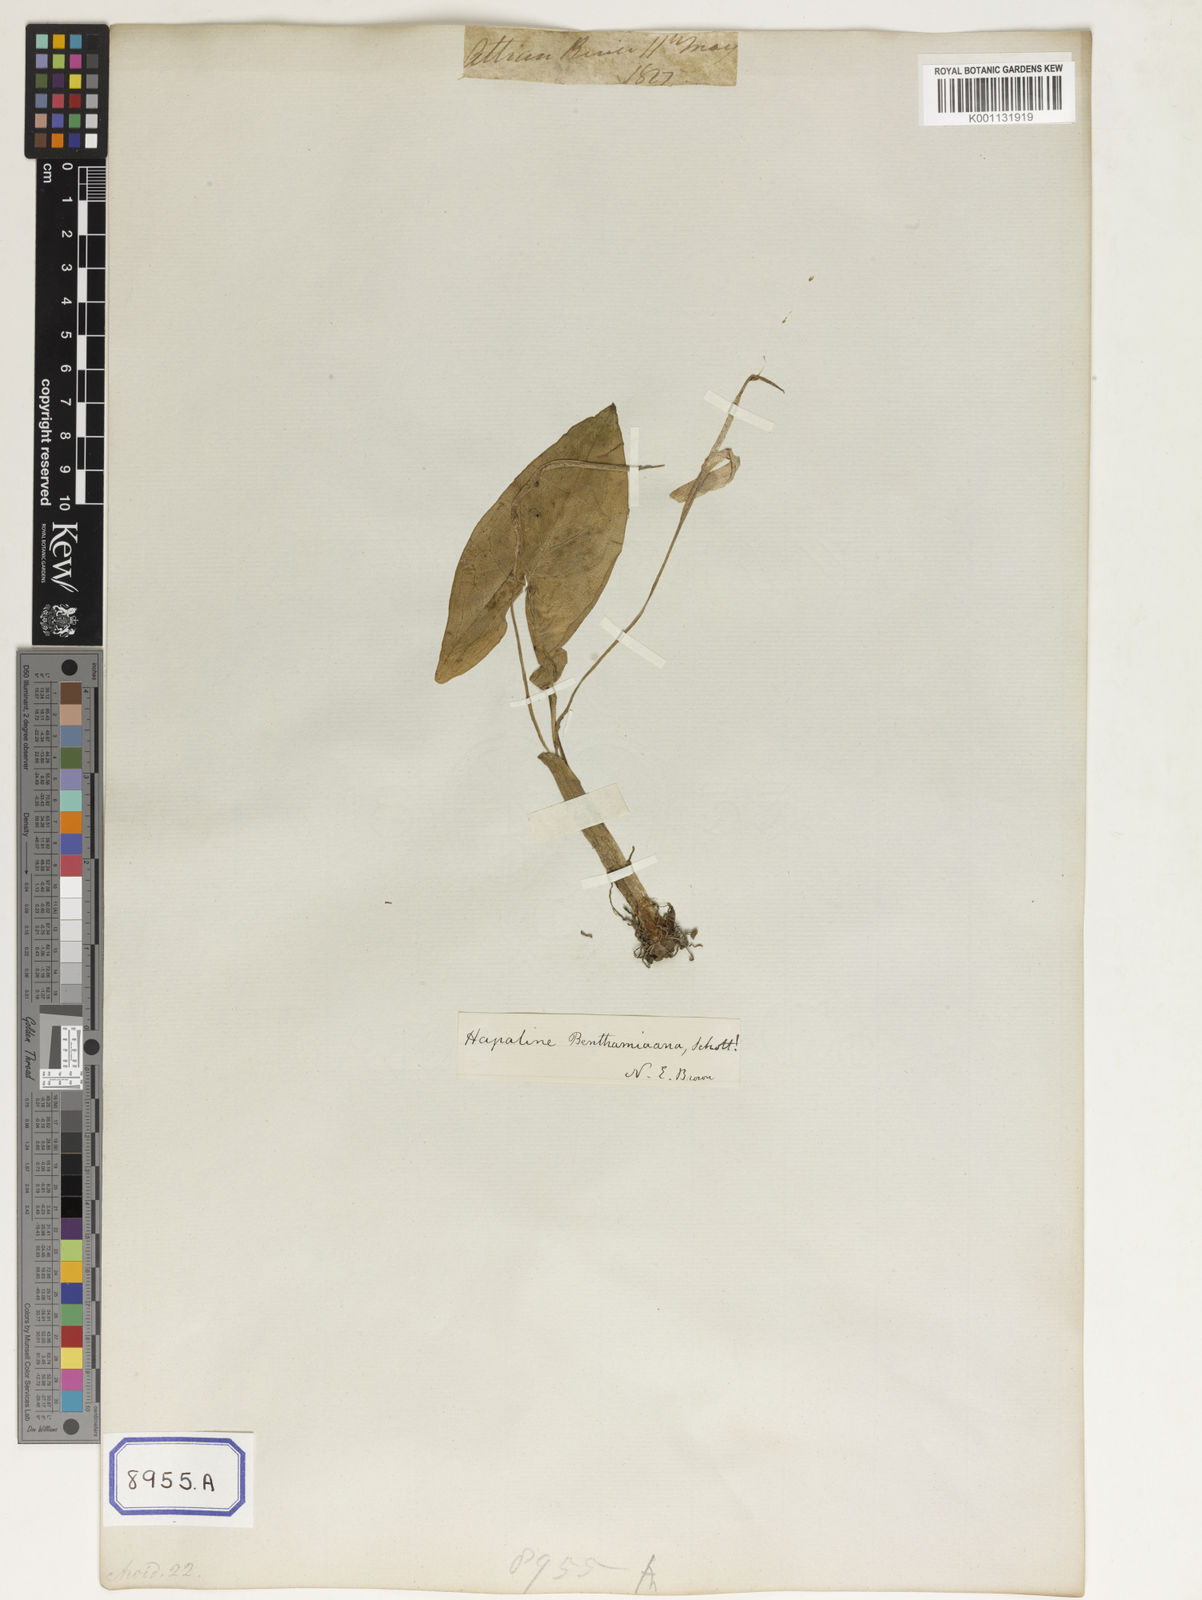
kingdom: Plantae
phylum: Tracheophyta
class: Liliopsida
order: Alismatales
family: Araceae
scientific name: Araceae
